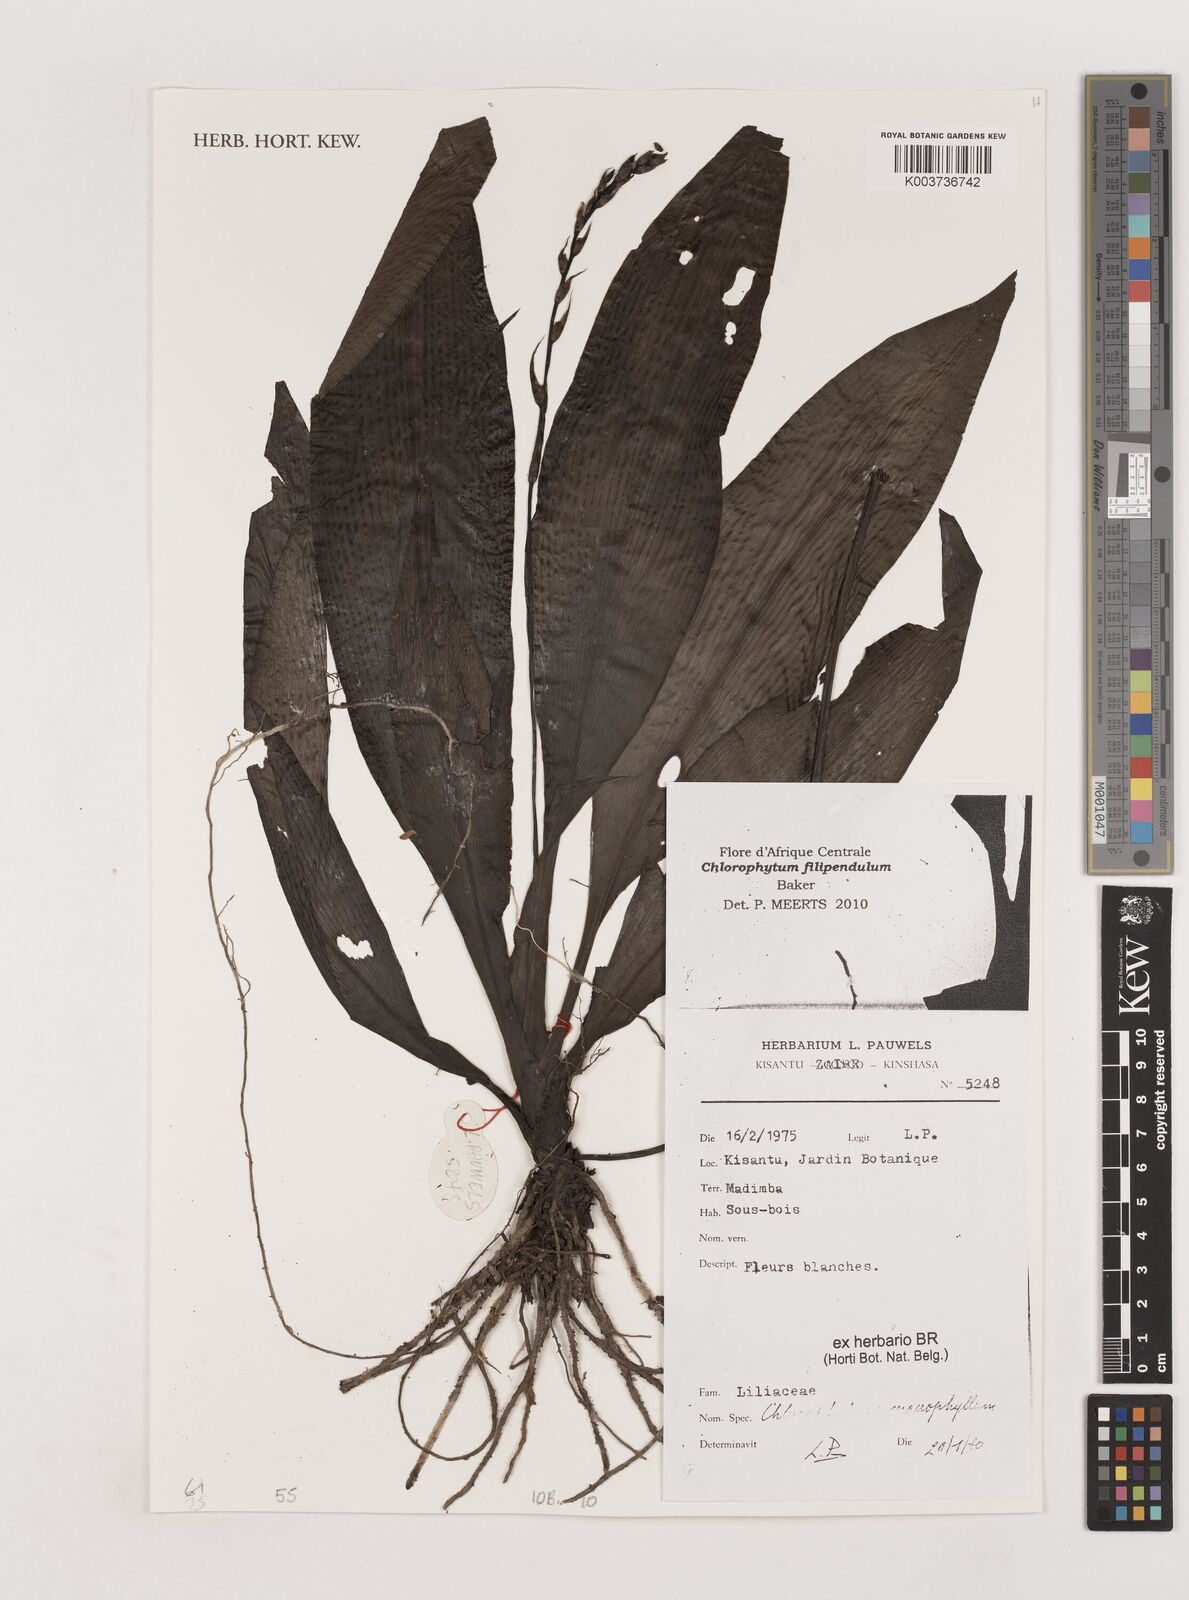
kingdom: Plantae
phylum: Tracheophyta
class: Liliopsida
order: Asparagales
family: Asparagaceae
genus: Chlorophytum
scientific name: Chlorophytum macrophyllum
